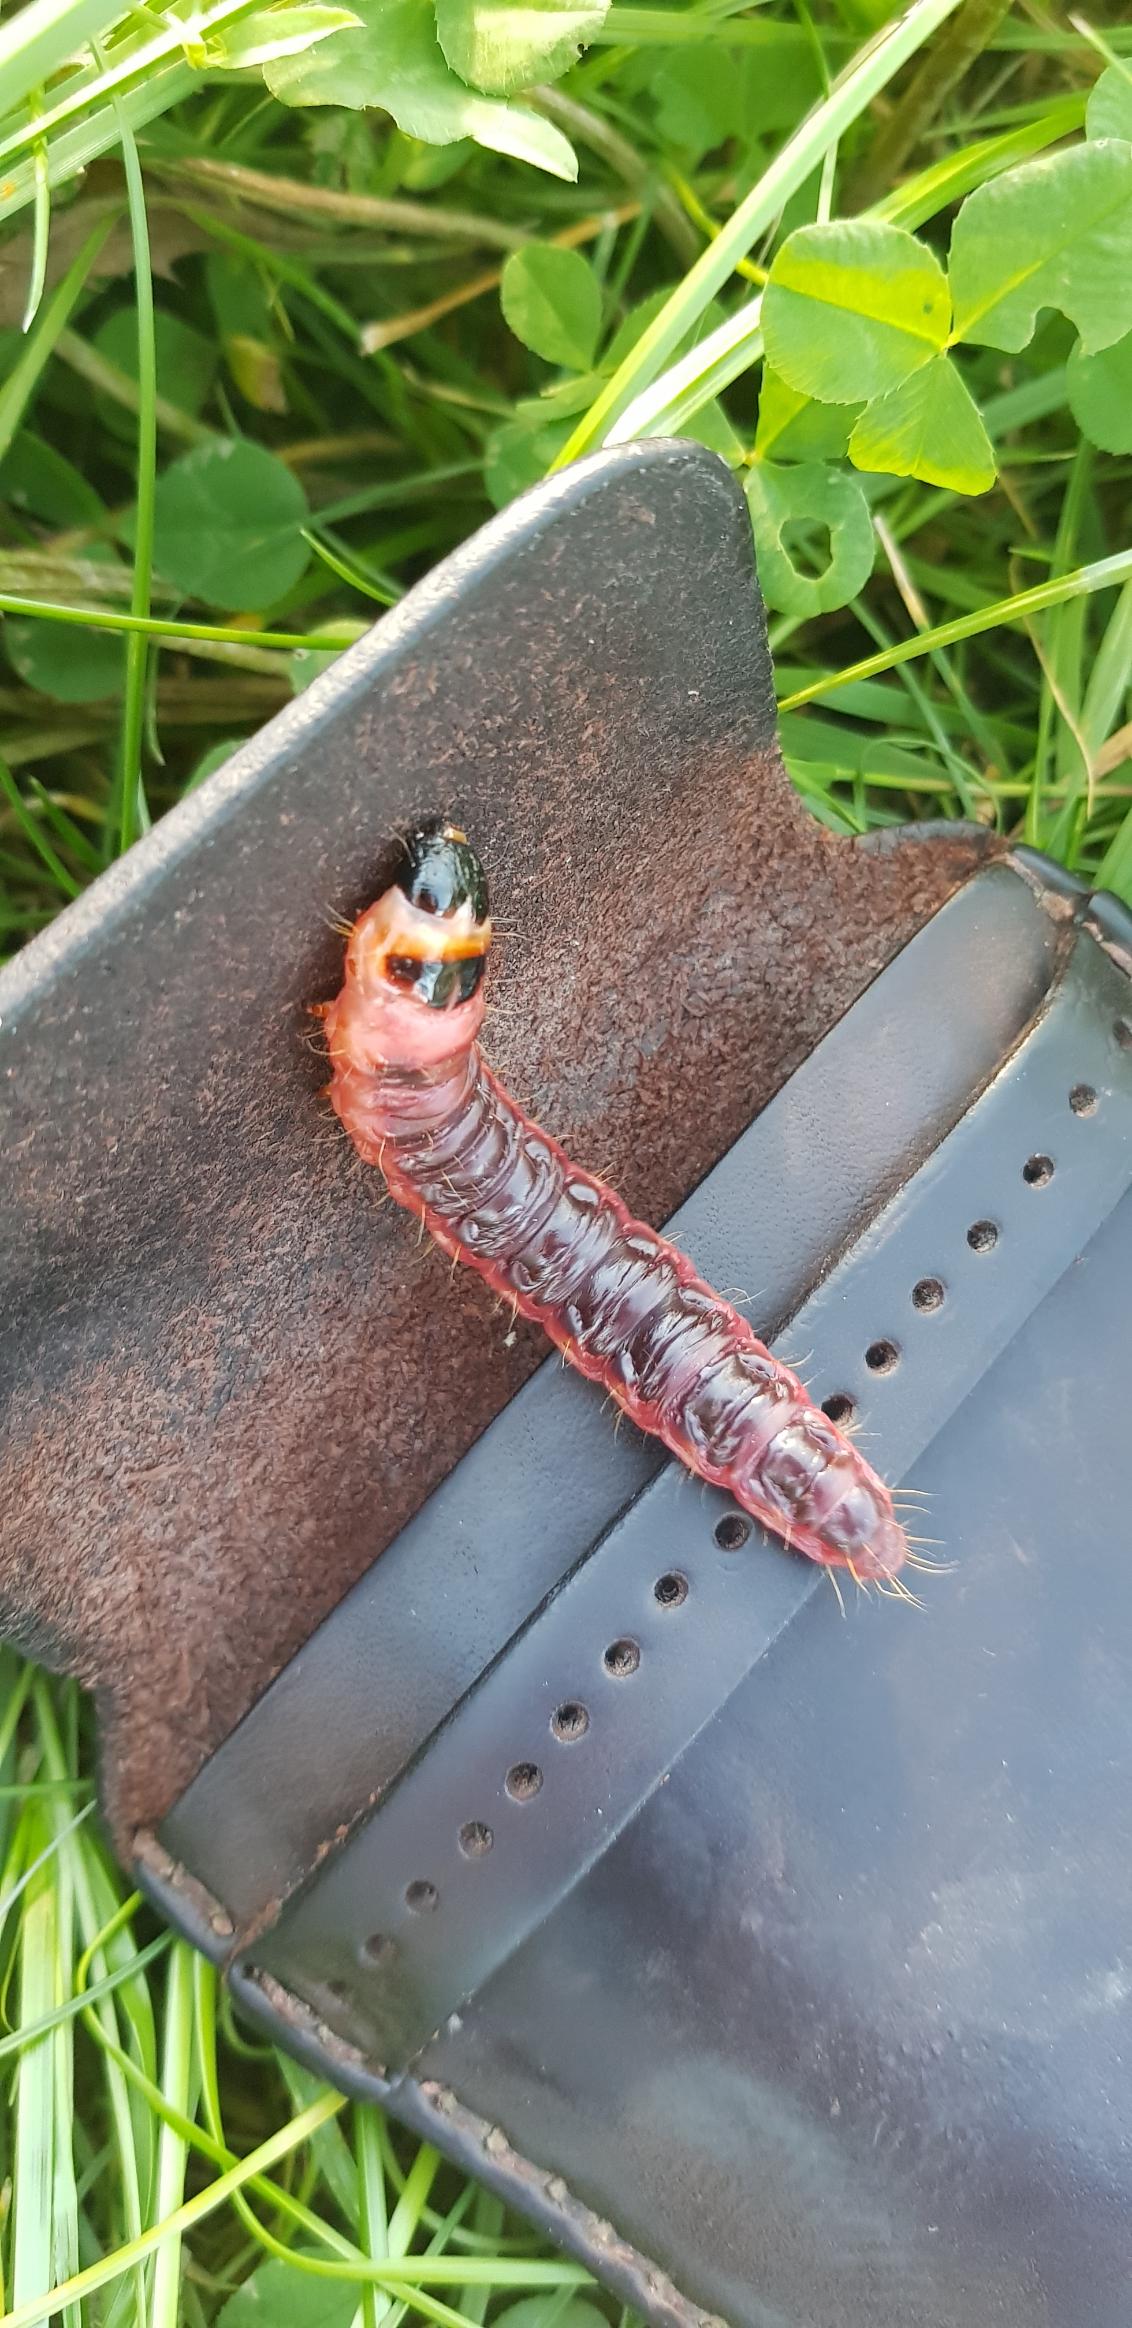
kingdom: Animalia
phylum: Arthropoda
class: Insecta
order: Lepidoptera
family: Cossidae
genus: Cossus
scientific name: Cossus cossus
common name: Pileborer
